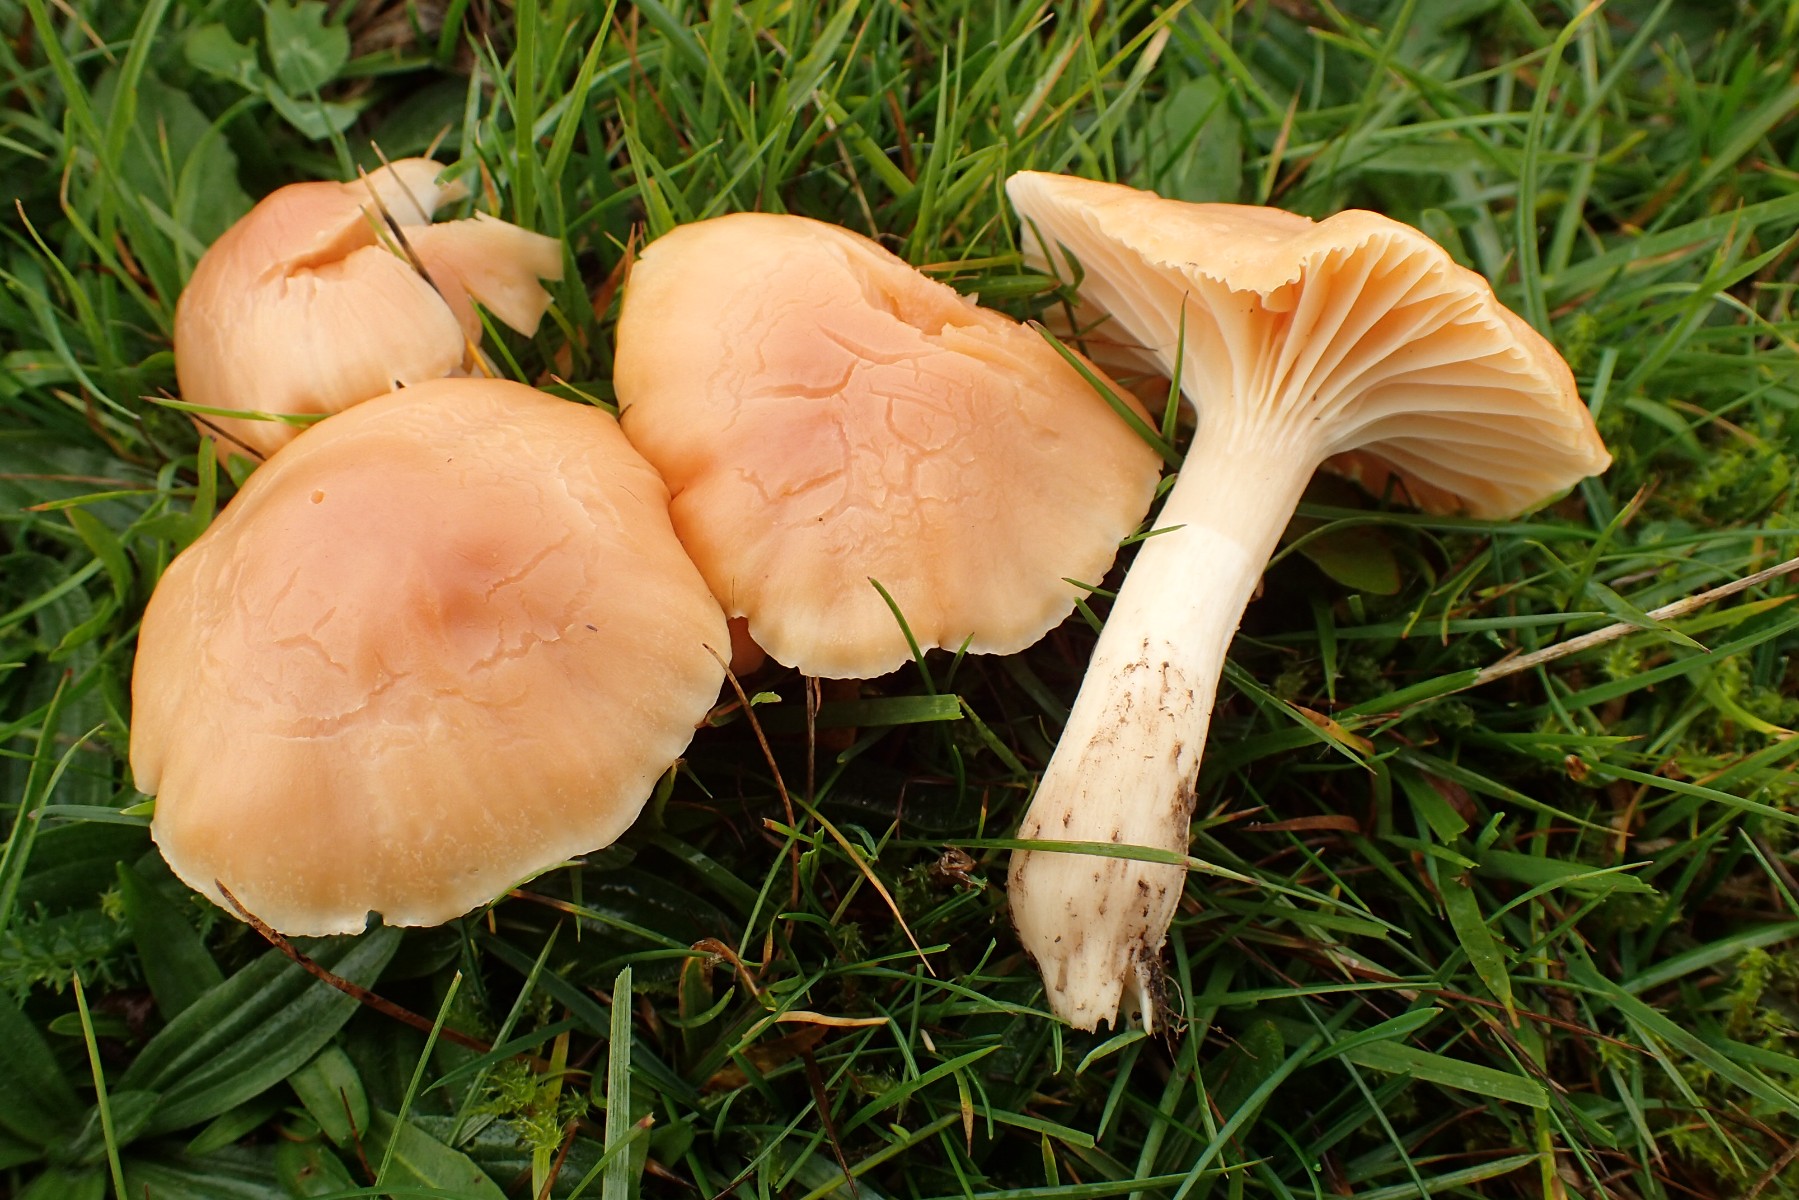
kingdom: Fungi
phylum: Basidiomycota
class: Agaricomycetes
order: Agaricales
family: Hygrophoraceae
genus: Cuphophyllus
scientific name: Cuphophyllus pratensis
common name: eng-vokshat
